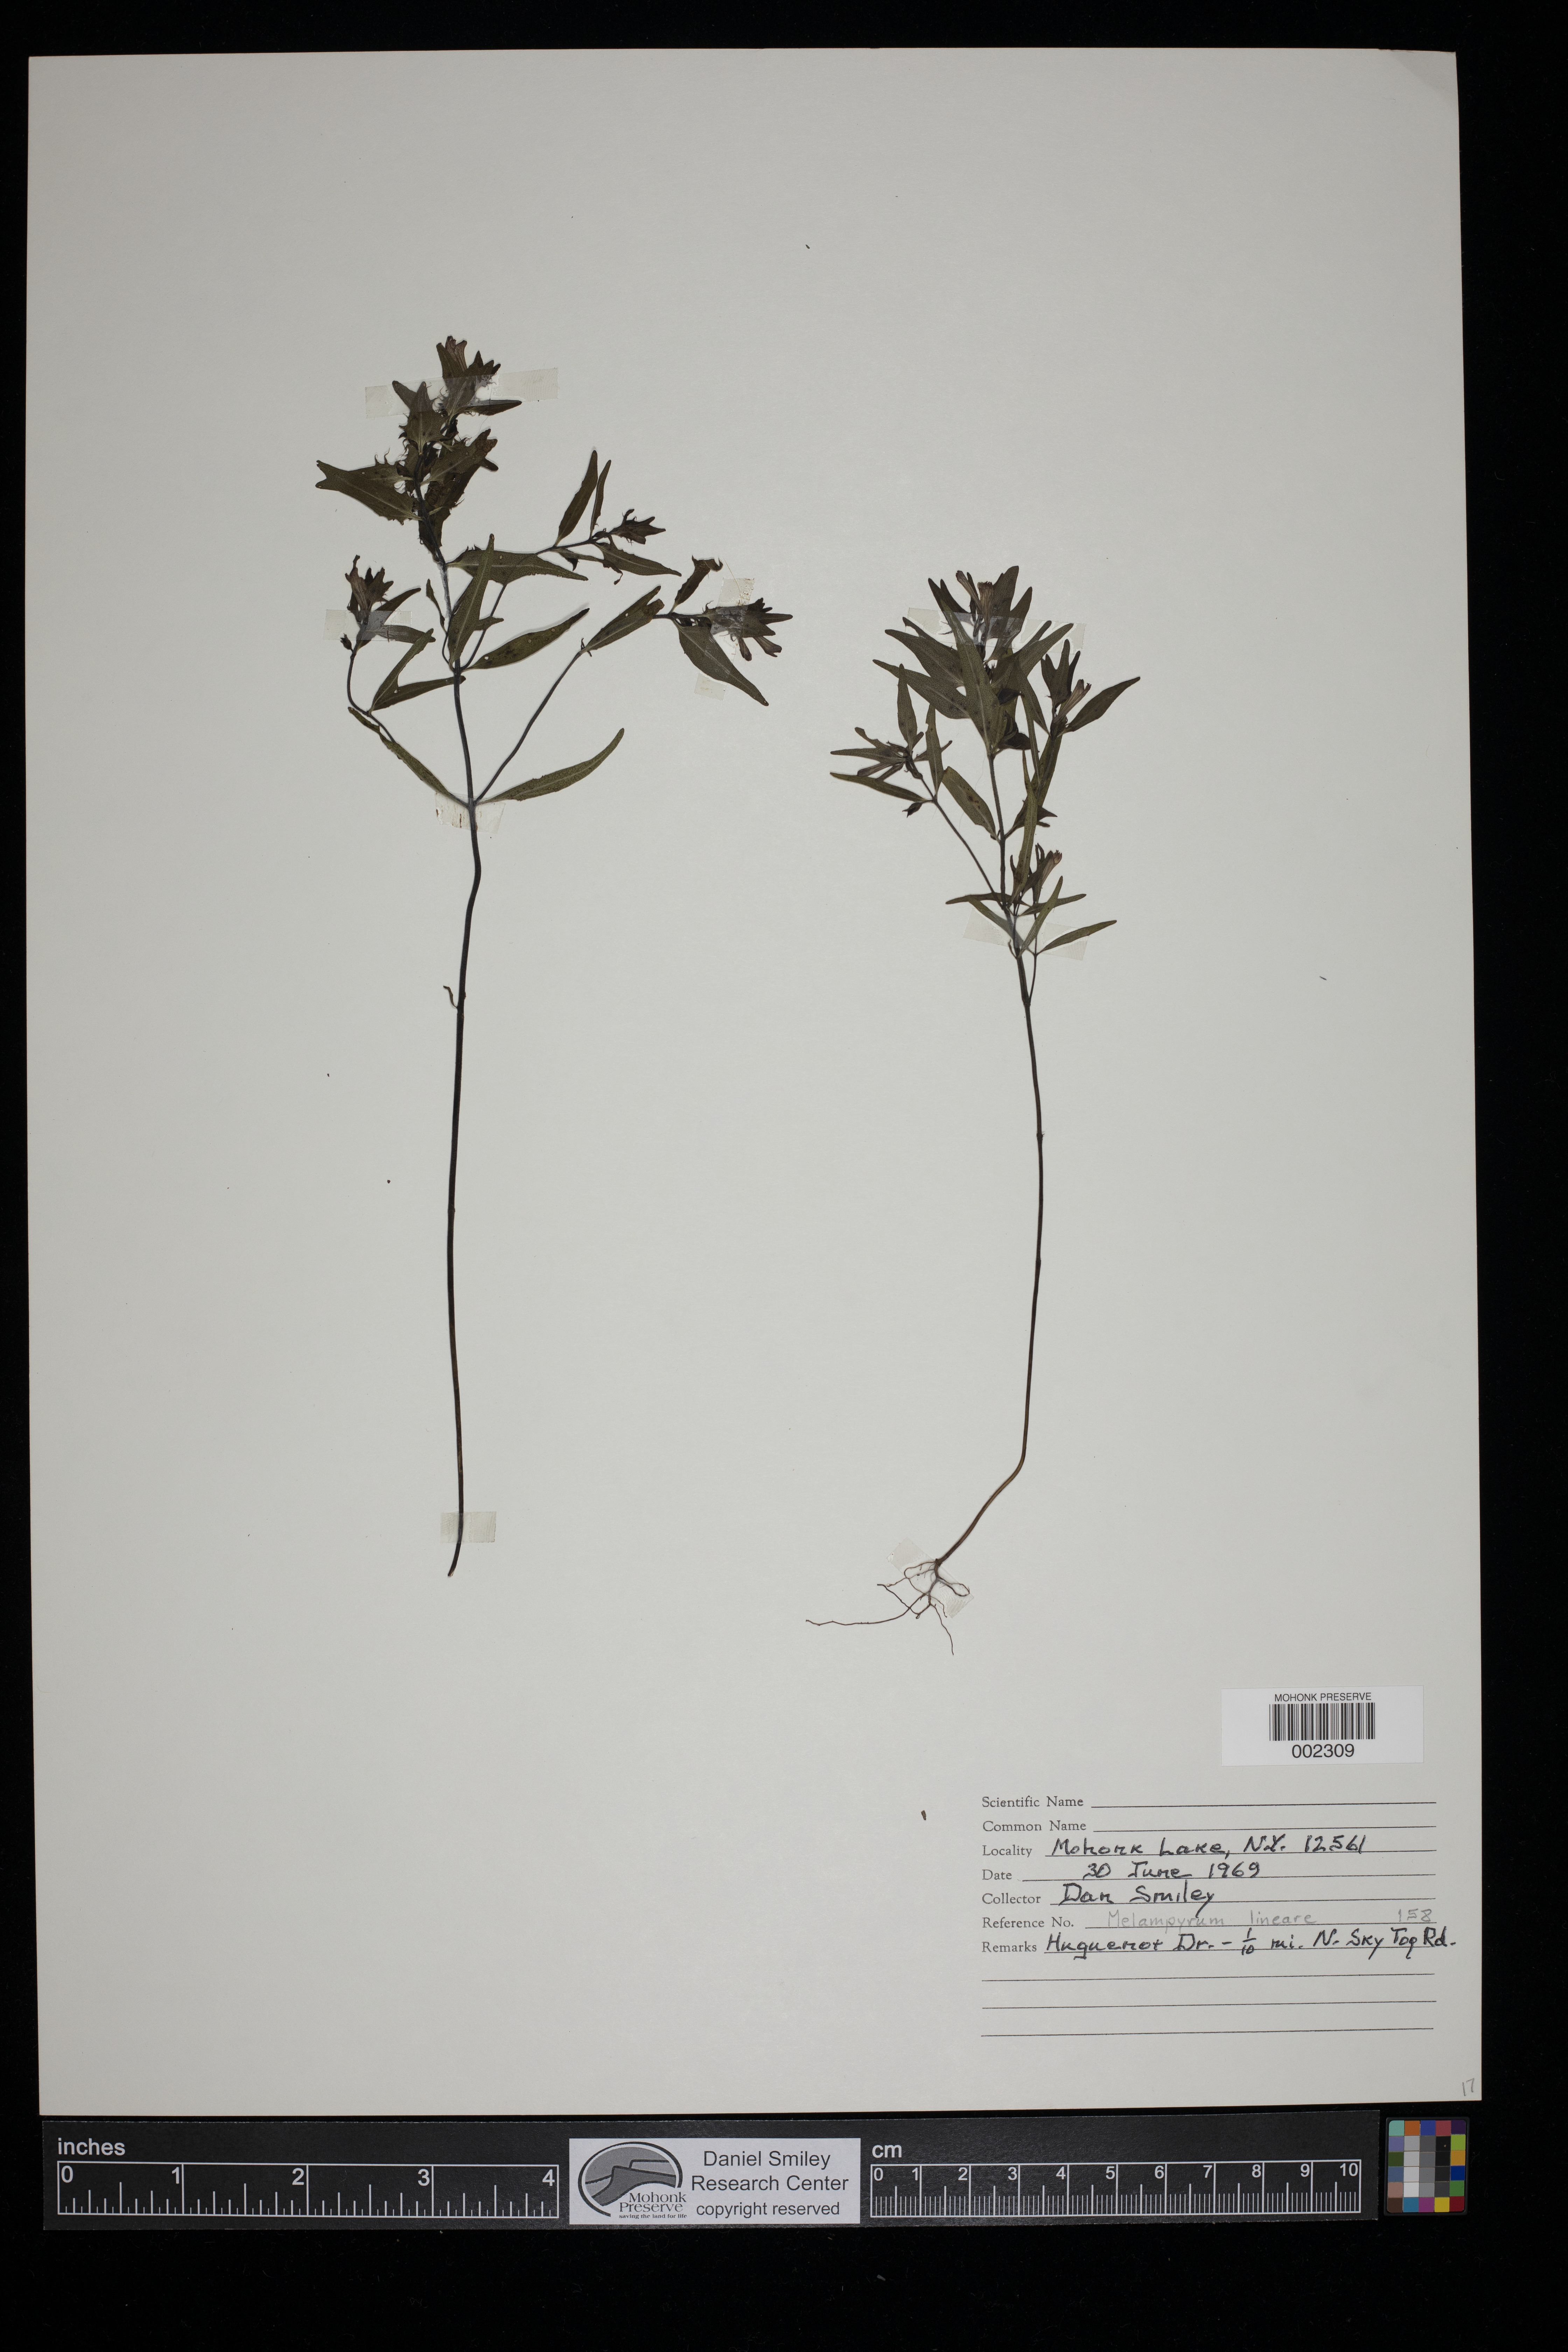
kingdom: Plantae
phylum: Tracheophyta
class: Magnoliopsida
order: Lamiales
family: Orobanchaceae
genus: Melampyrum
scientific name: Melampyrum lineare
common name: American cow-wheat
